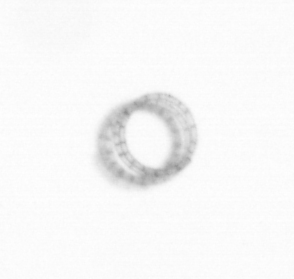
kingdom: Chromista
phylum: Ochrophyta
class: Bacillariophyceae
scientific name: Bacillariophyceae
